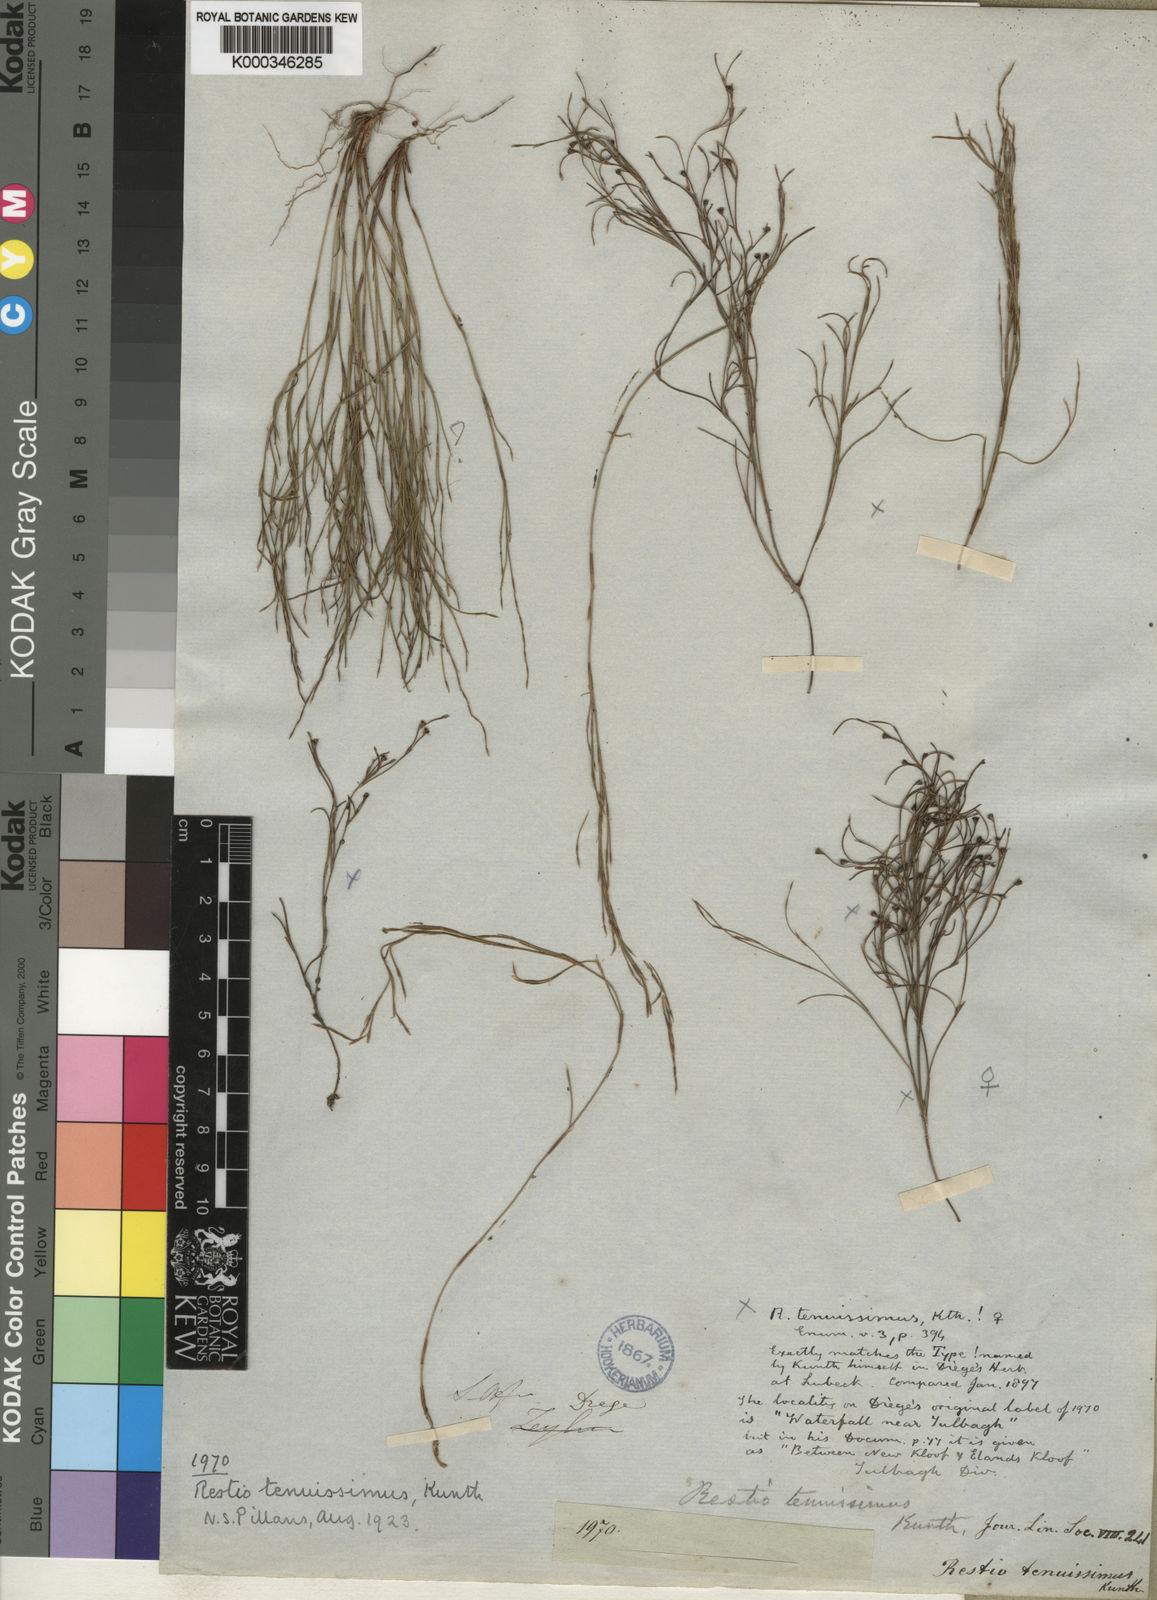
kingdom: Plantae
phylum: Tracheophyta
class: Liliopsida
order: Poales
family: Restionaceae
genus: Restio
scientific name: Restio tenuissimus
